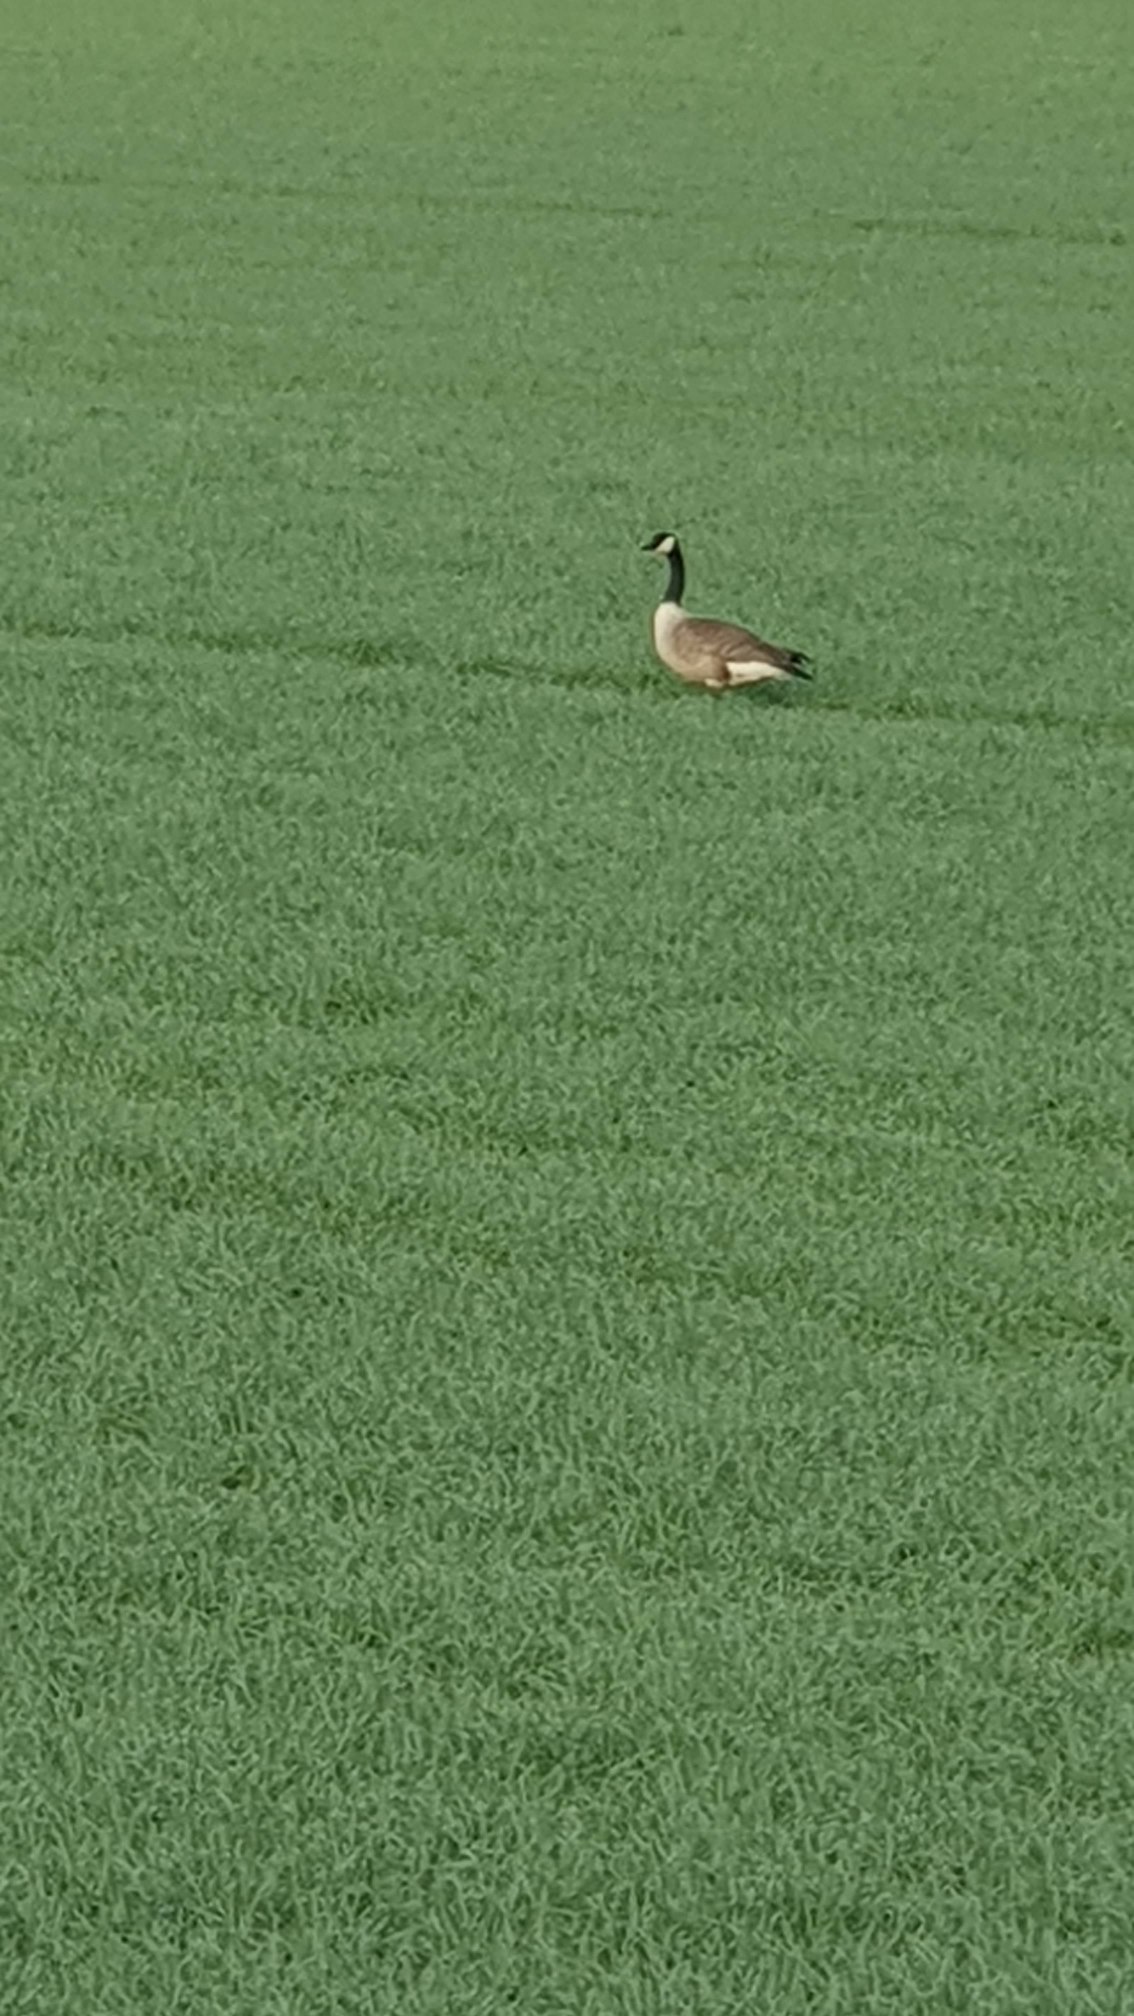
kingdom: Animalia
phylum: Chordata
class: Aves
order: Anseriformes
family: Anatidae
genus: Branta
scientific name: Branta canadensis
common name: Canadagås
